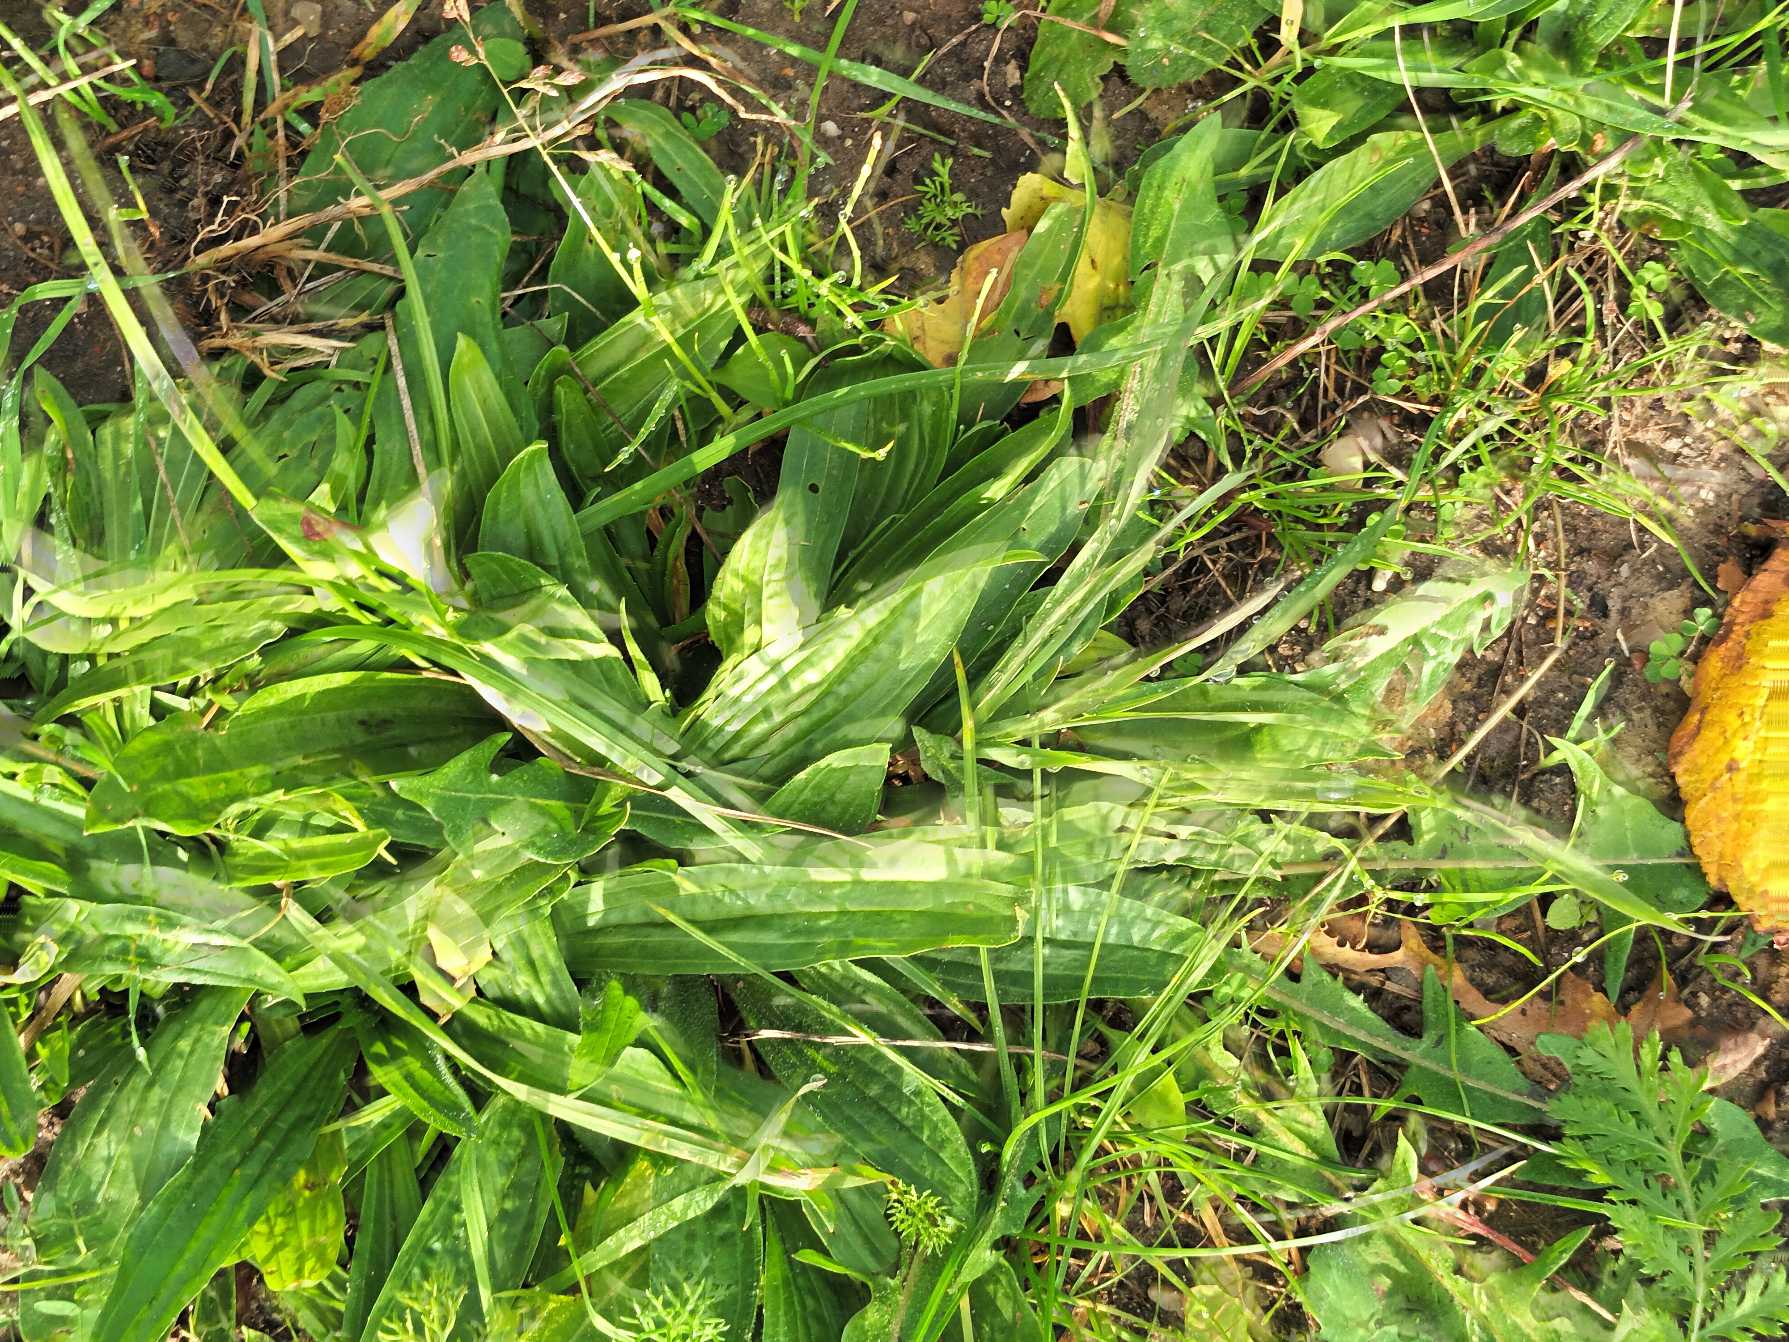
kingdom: Plantae
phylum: Tracheophyta
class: Magnoliopsida
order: Lamiales
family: Plantaginaceae
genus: Plantago
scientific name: Plantago lanceolata
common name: Lancet-vejbred
